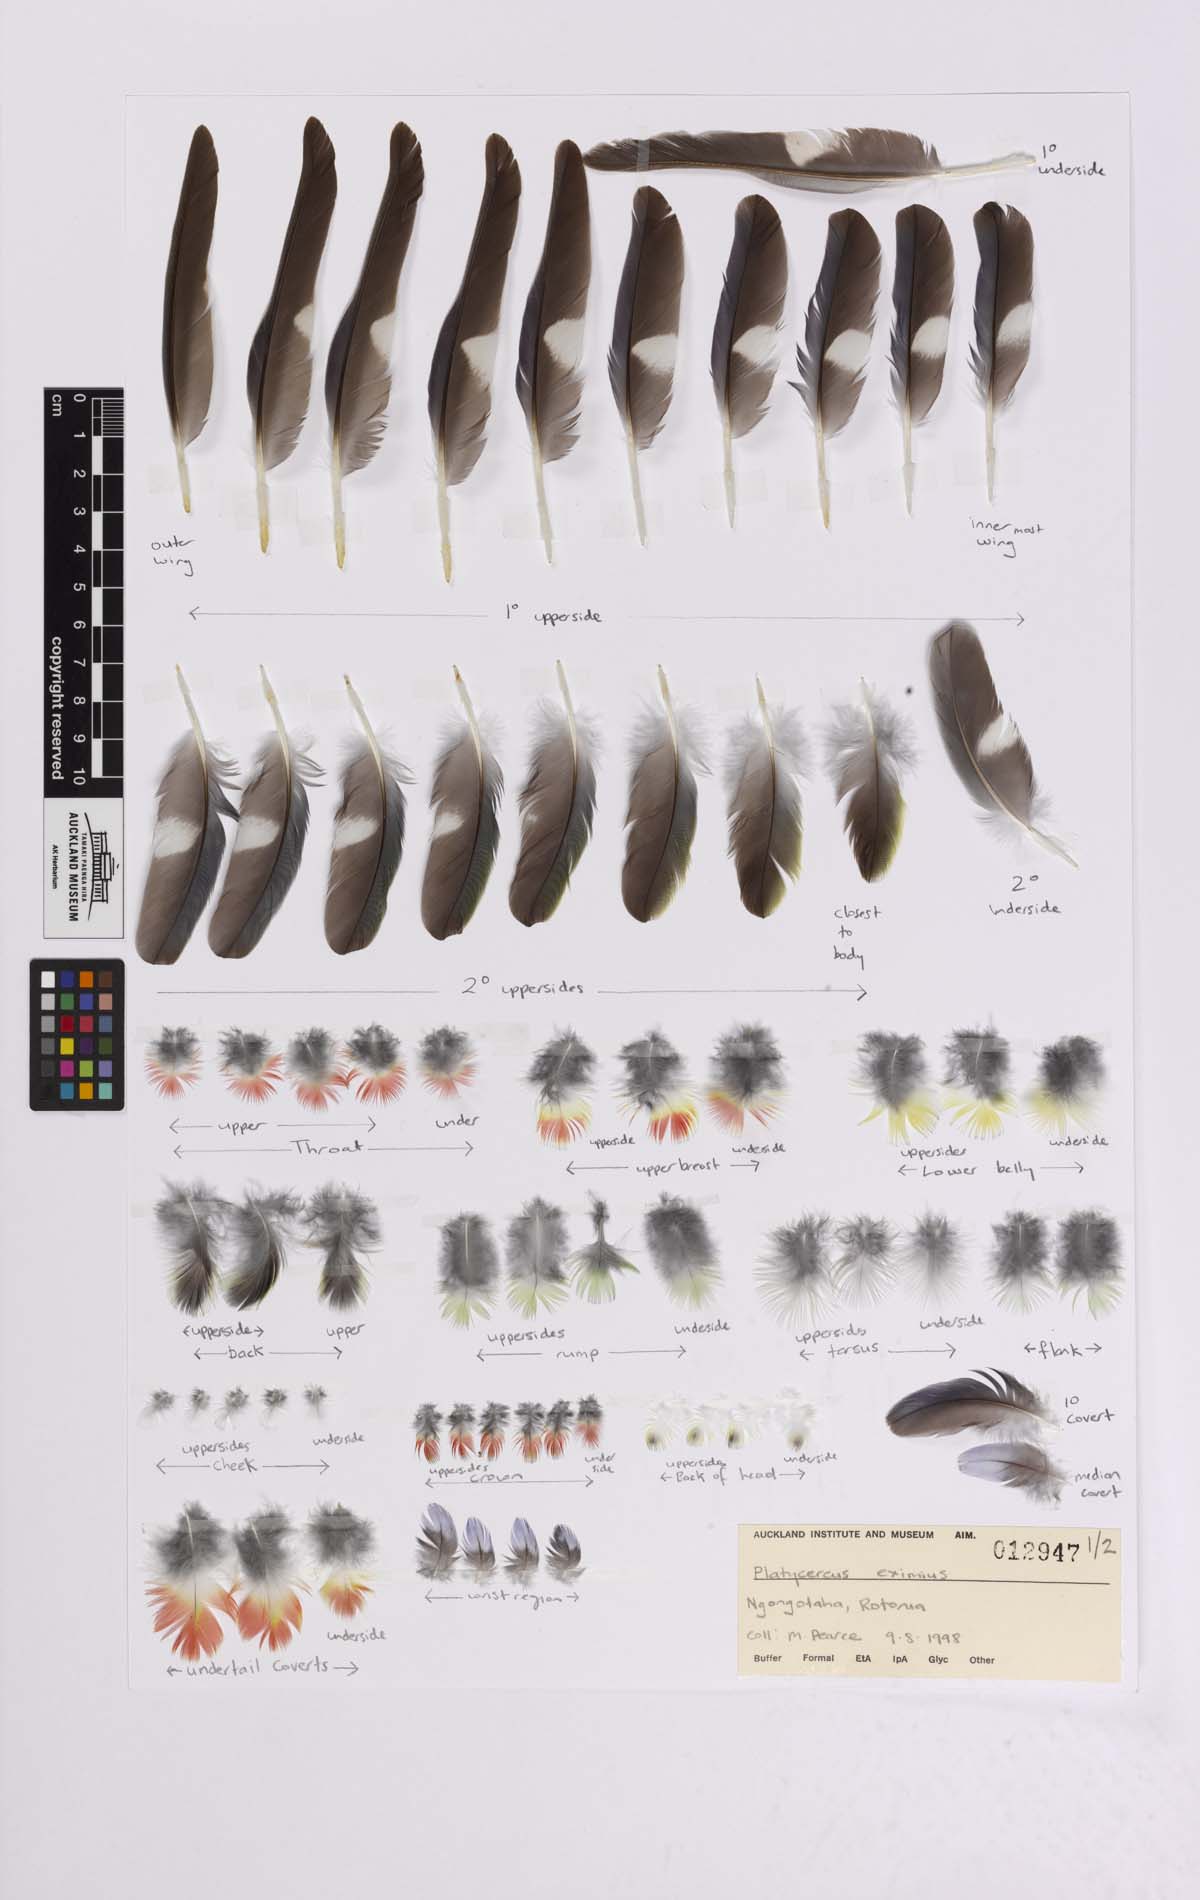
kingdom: Animalia
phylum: Chordata
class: Aves
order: Psittaciformes
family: Psittacidae
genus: Platycercus
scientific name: Platycercus eximius
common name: Eastern rosella
